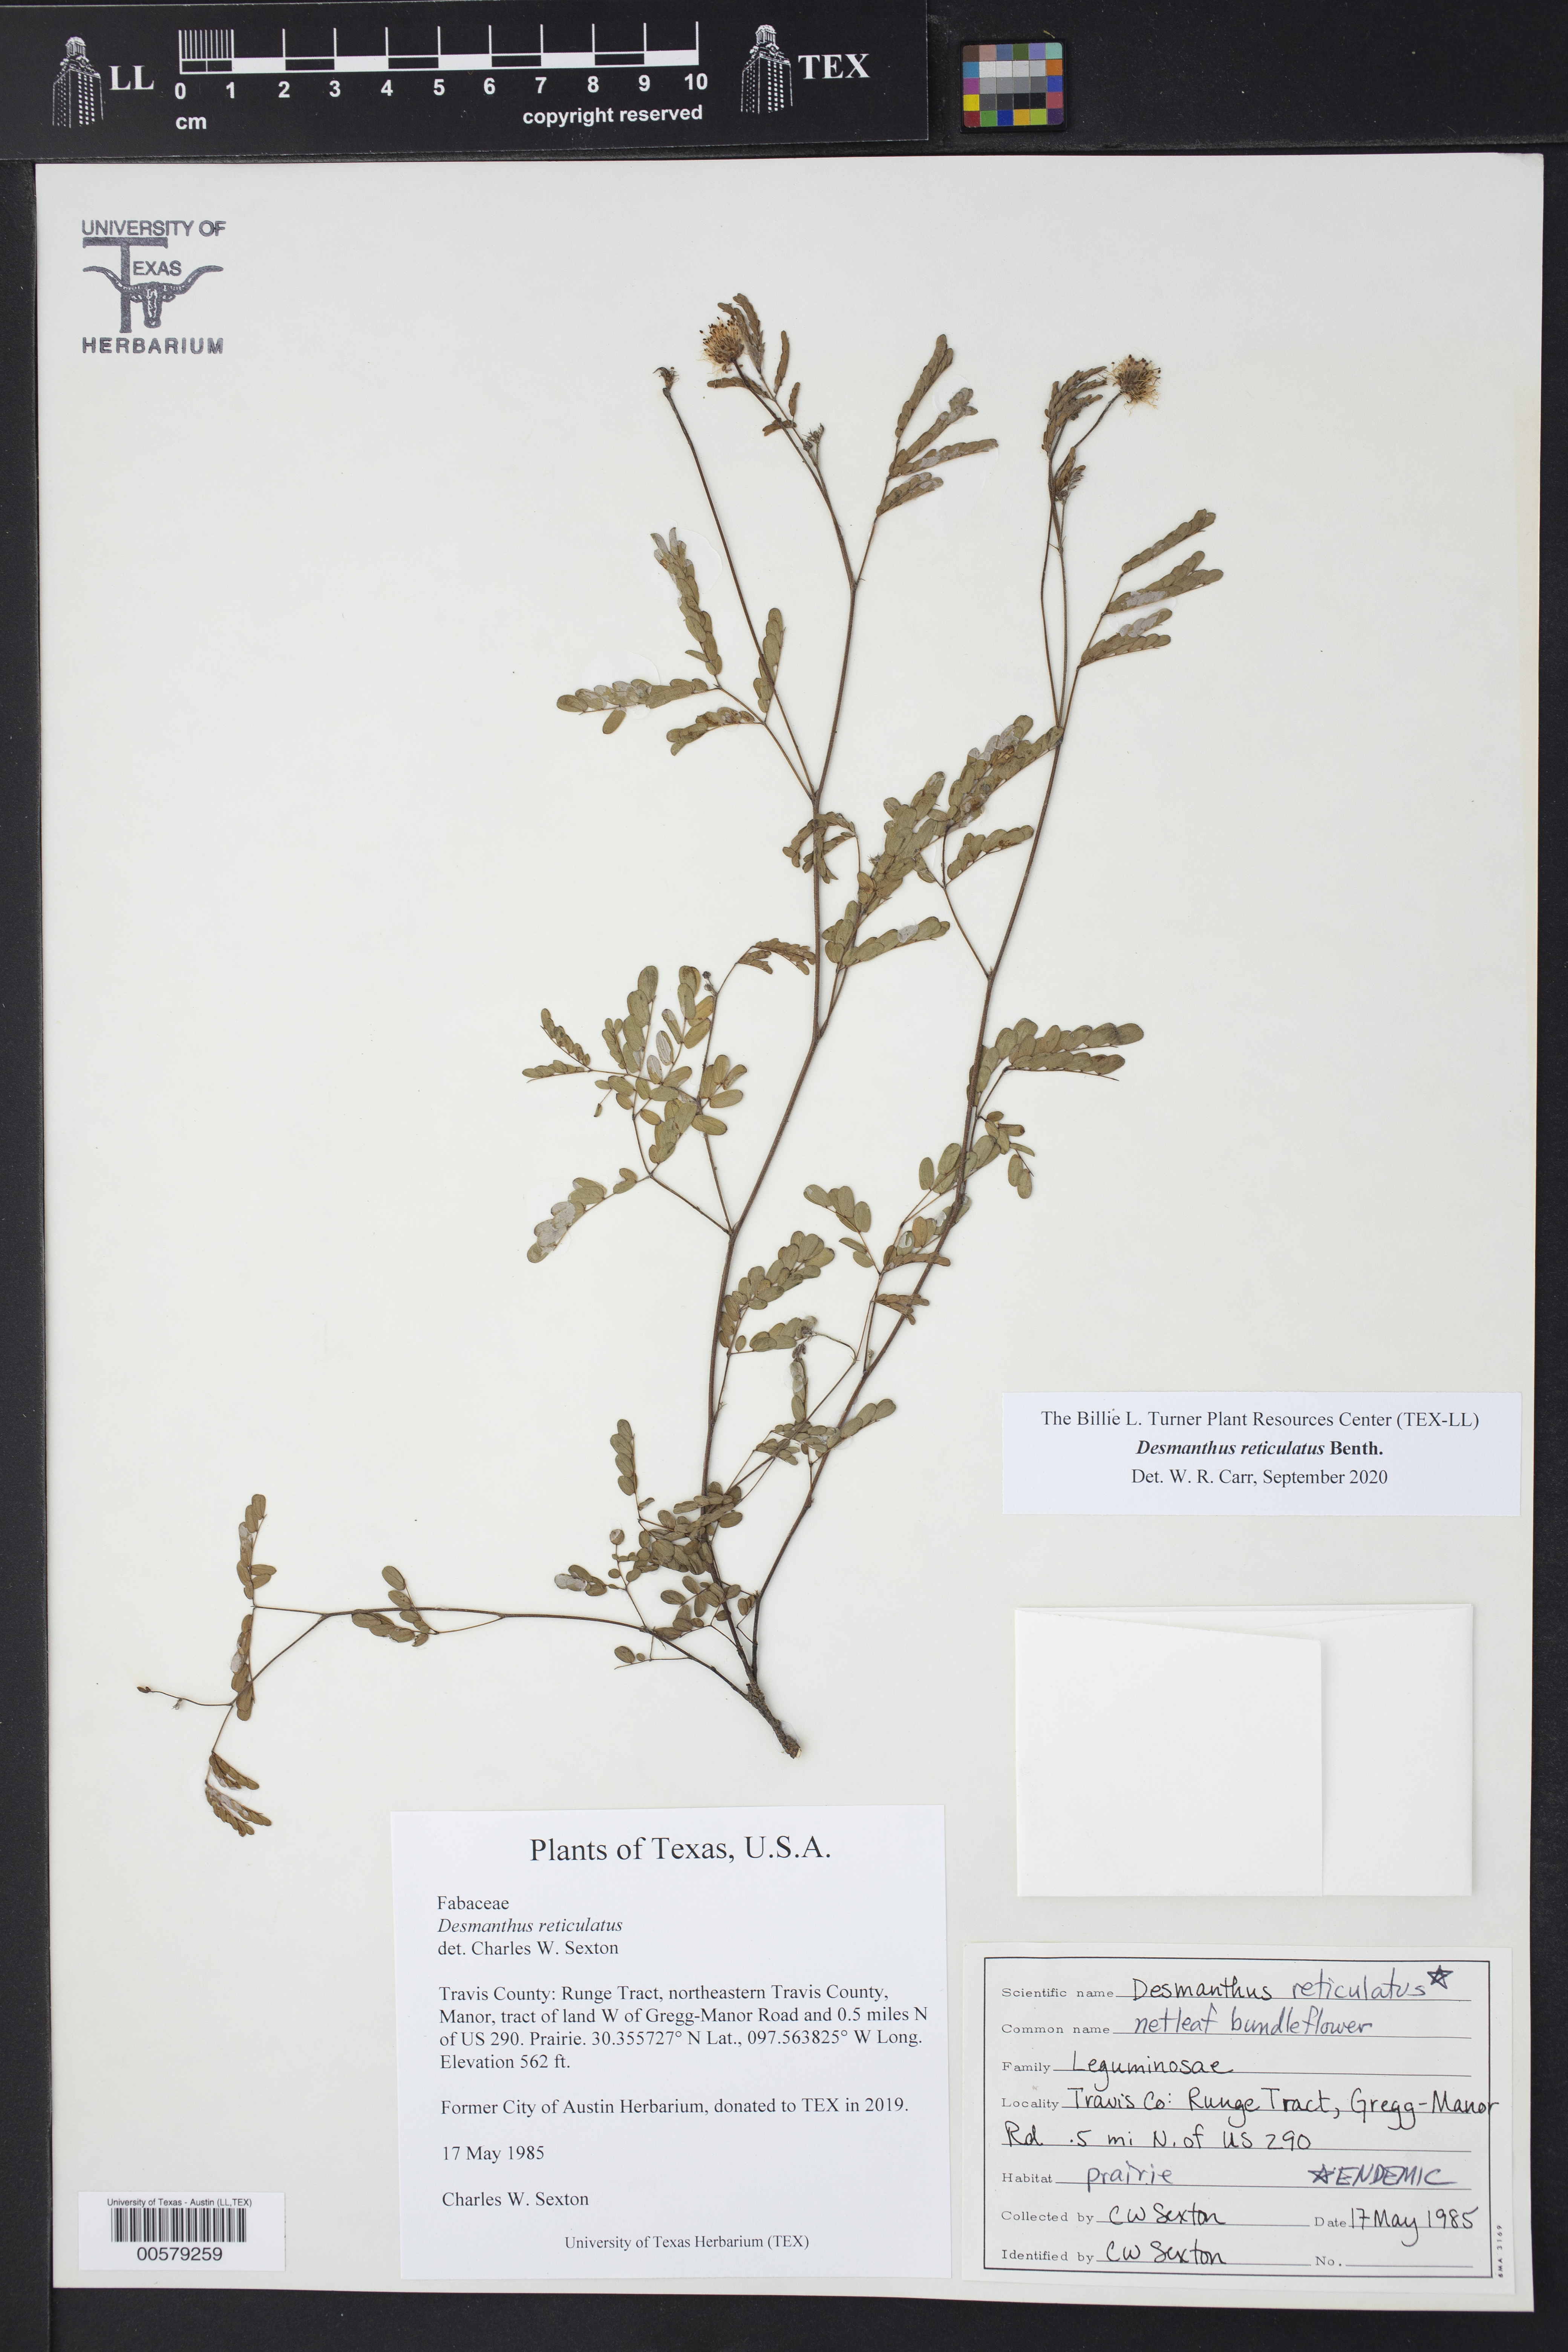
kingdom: Plantae
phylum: Tracheophyta
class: Magnoliopsida
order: Fabales
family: Fabaceae
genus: Desmanthus
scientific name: Desmanthus reticulatus
